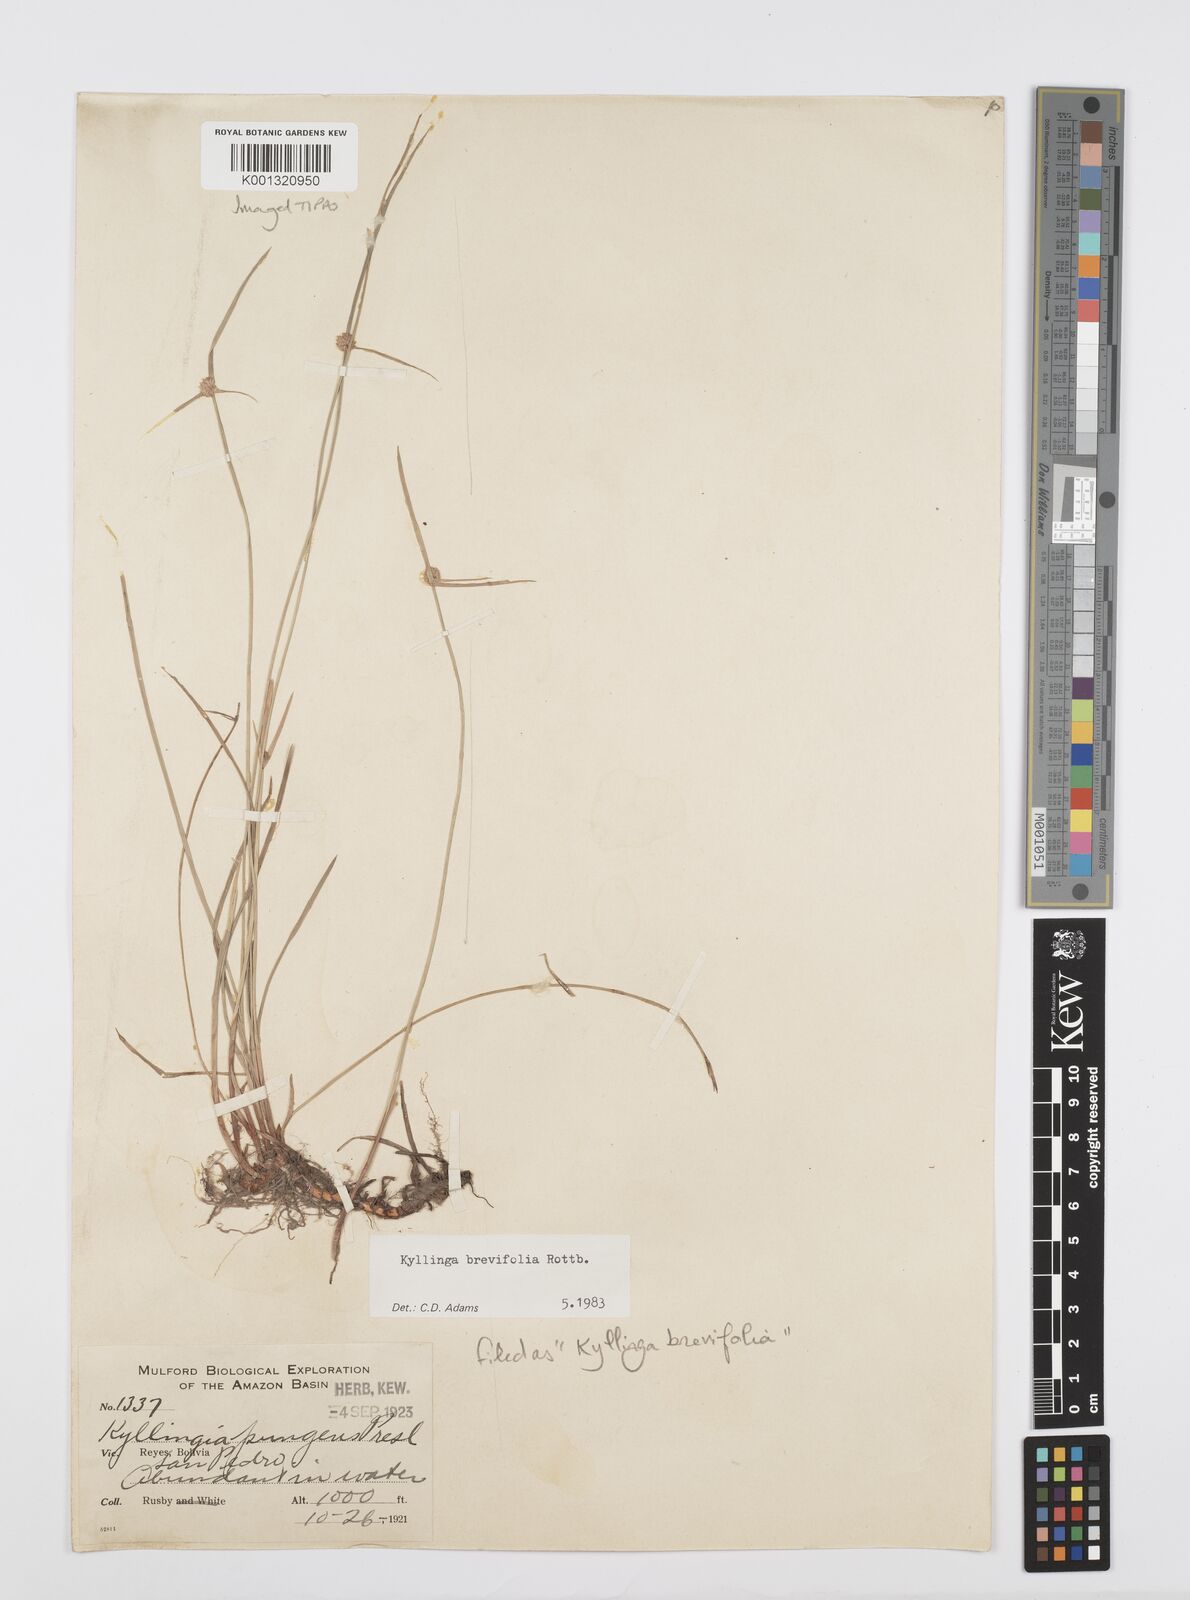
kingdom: Plantae
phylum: Tracheophyta
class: Liliopsida
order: Poales
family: Cyperaceae
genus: Cyperus
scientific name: Cyperus brevifolius
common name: Globe kyllinga
